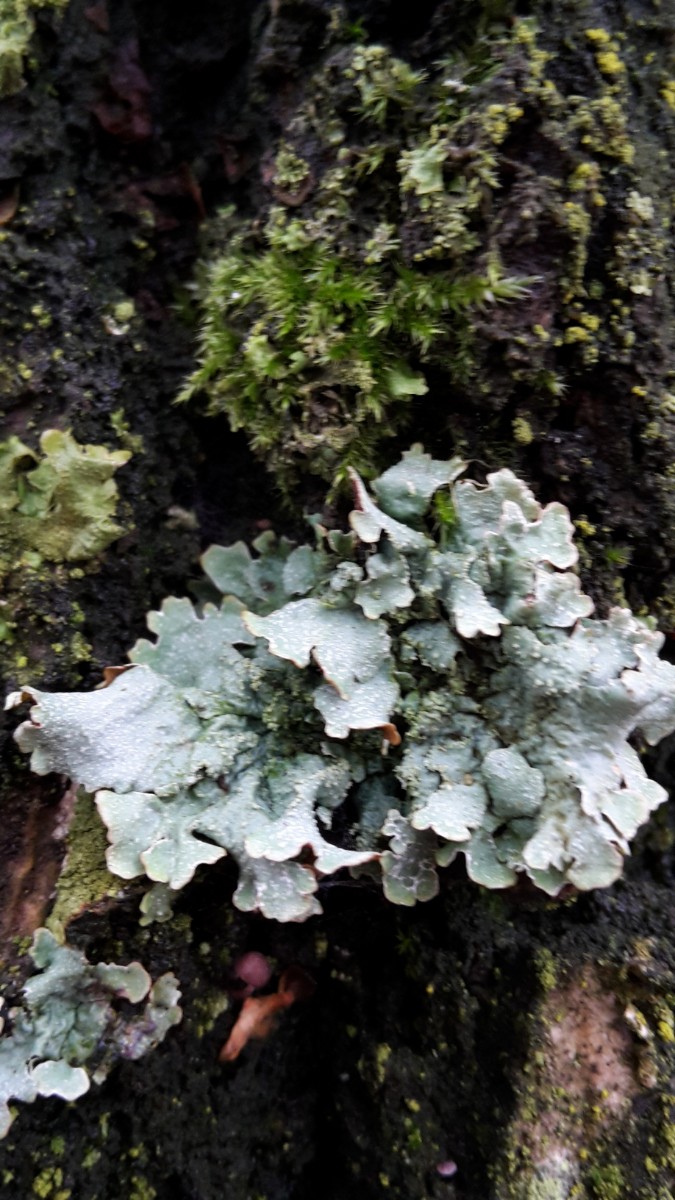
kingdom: Fungi
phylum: Ascomycota
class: Lecanoromycetes
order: Lecanorales
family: Parmeliaceae
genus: Parmelia
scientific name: Parmelia sulcata
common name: rynket skållav
